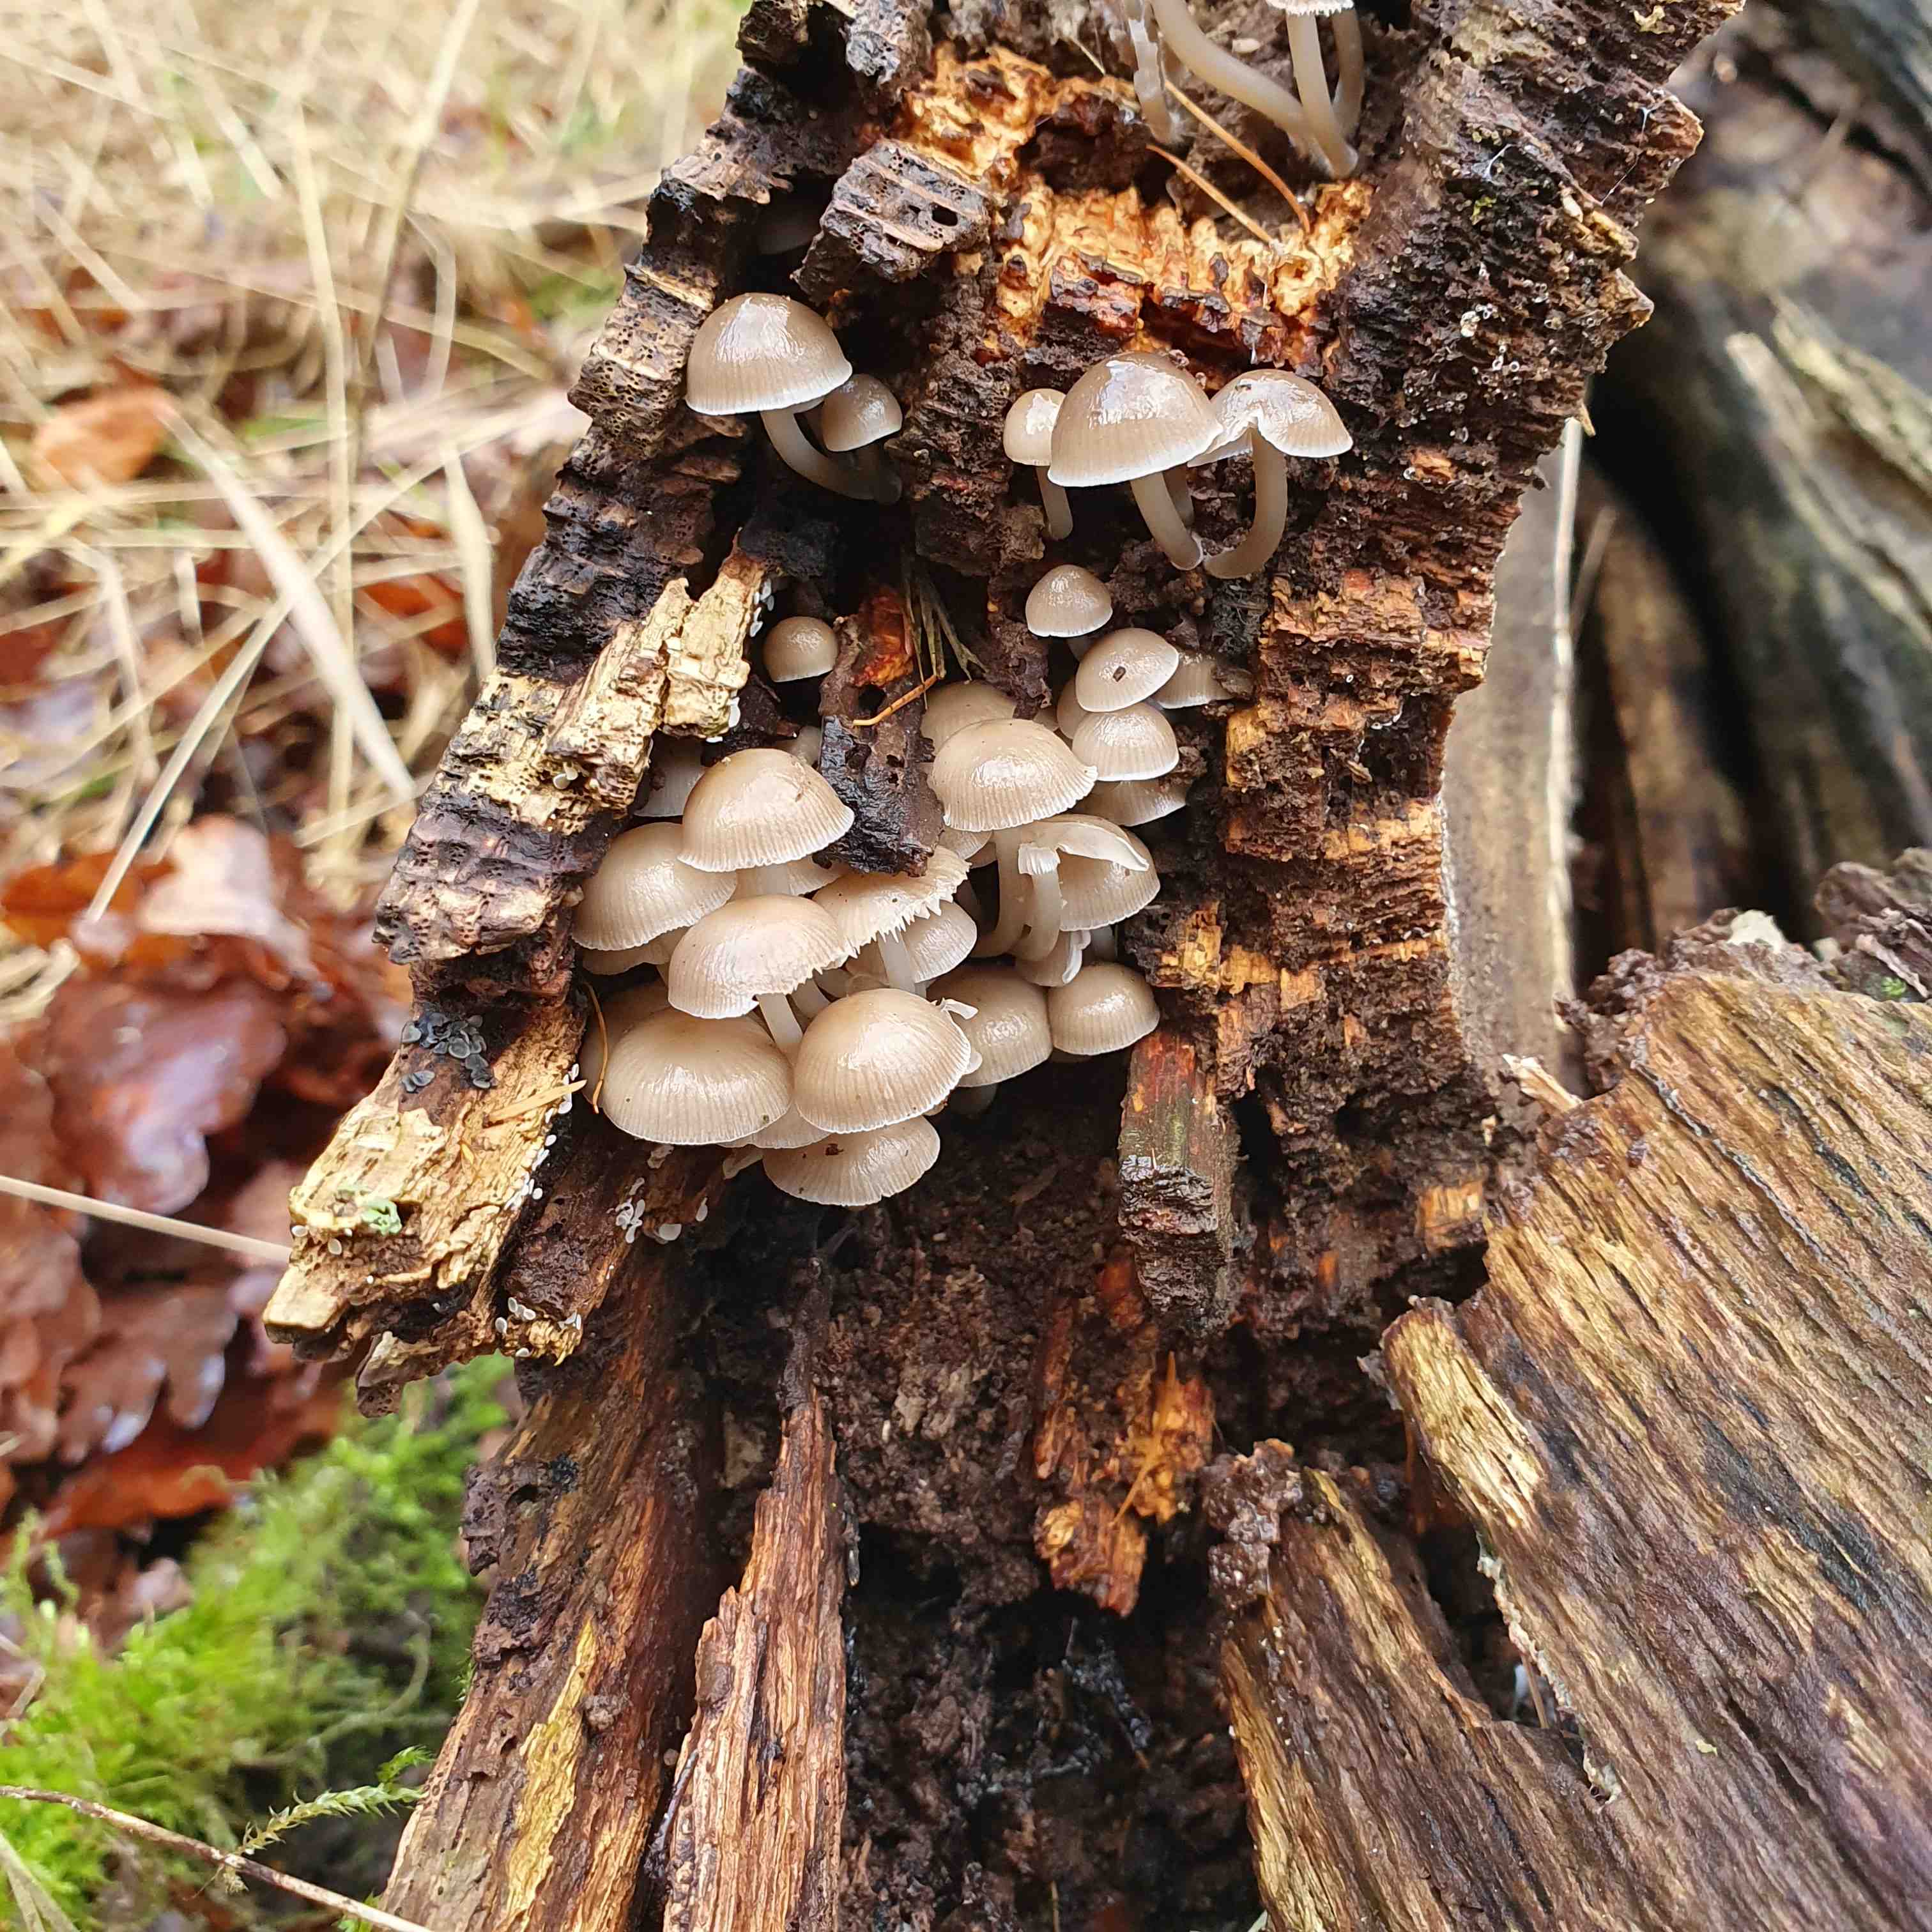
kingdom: Fungi
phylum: Basidiomycota
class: Agaricomycetes
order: Agaricales
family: Mycenaceae
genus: Mycena
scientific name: Mycena tintinnabulum
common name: vinter-huesvamp
